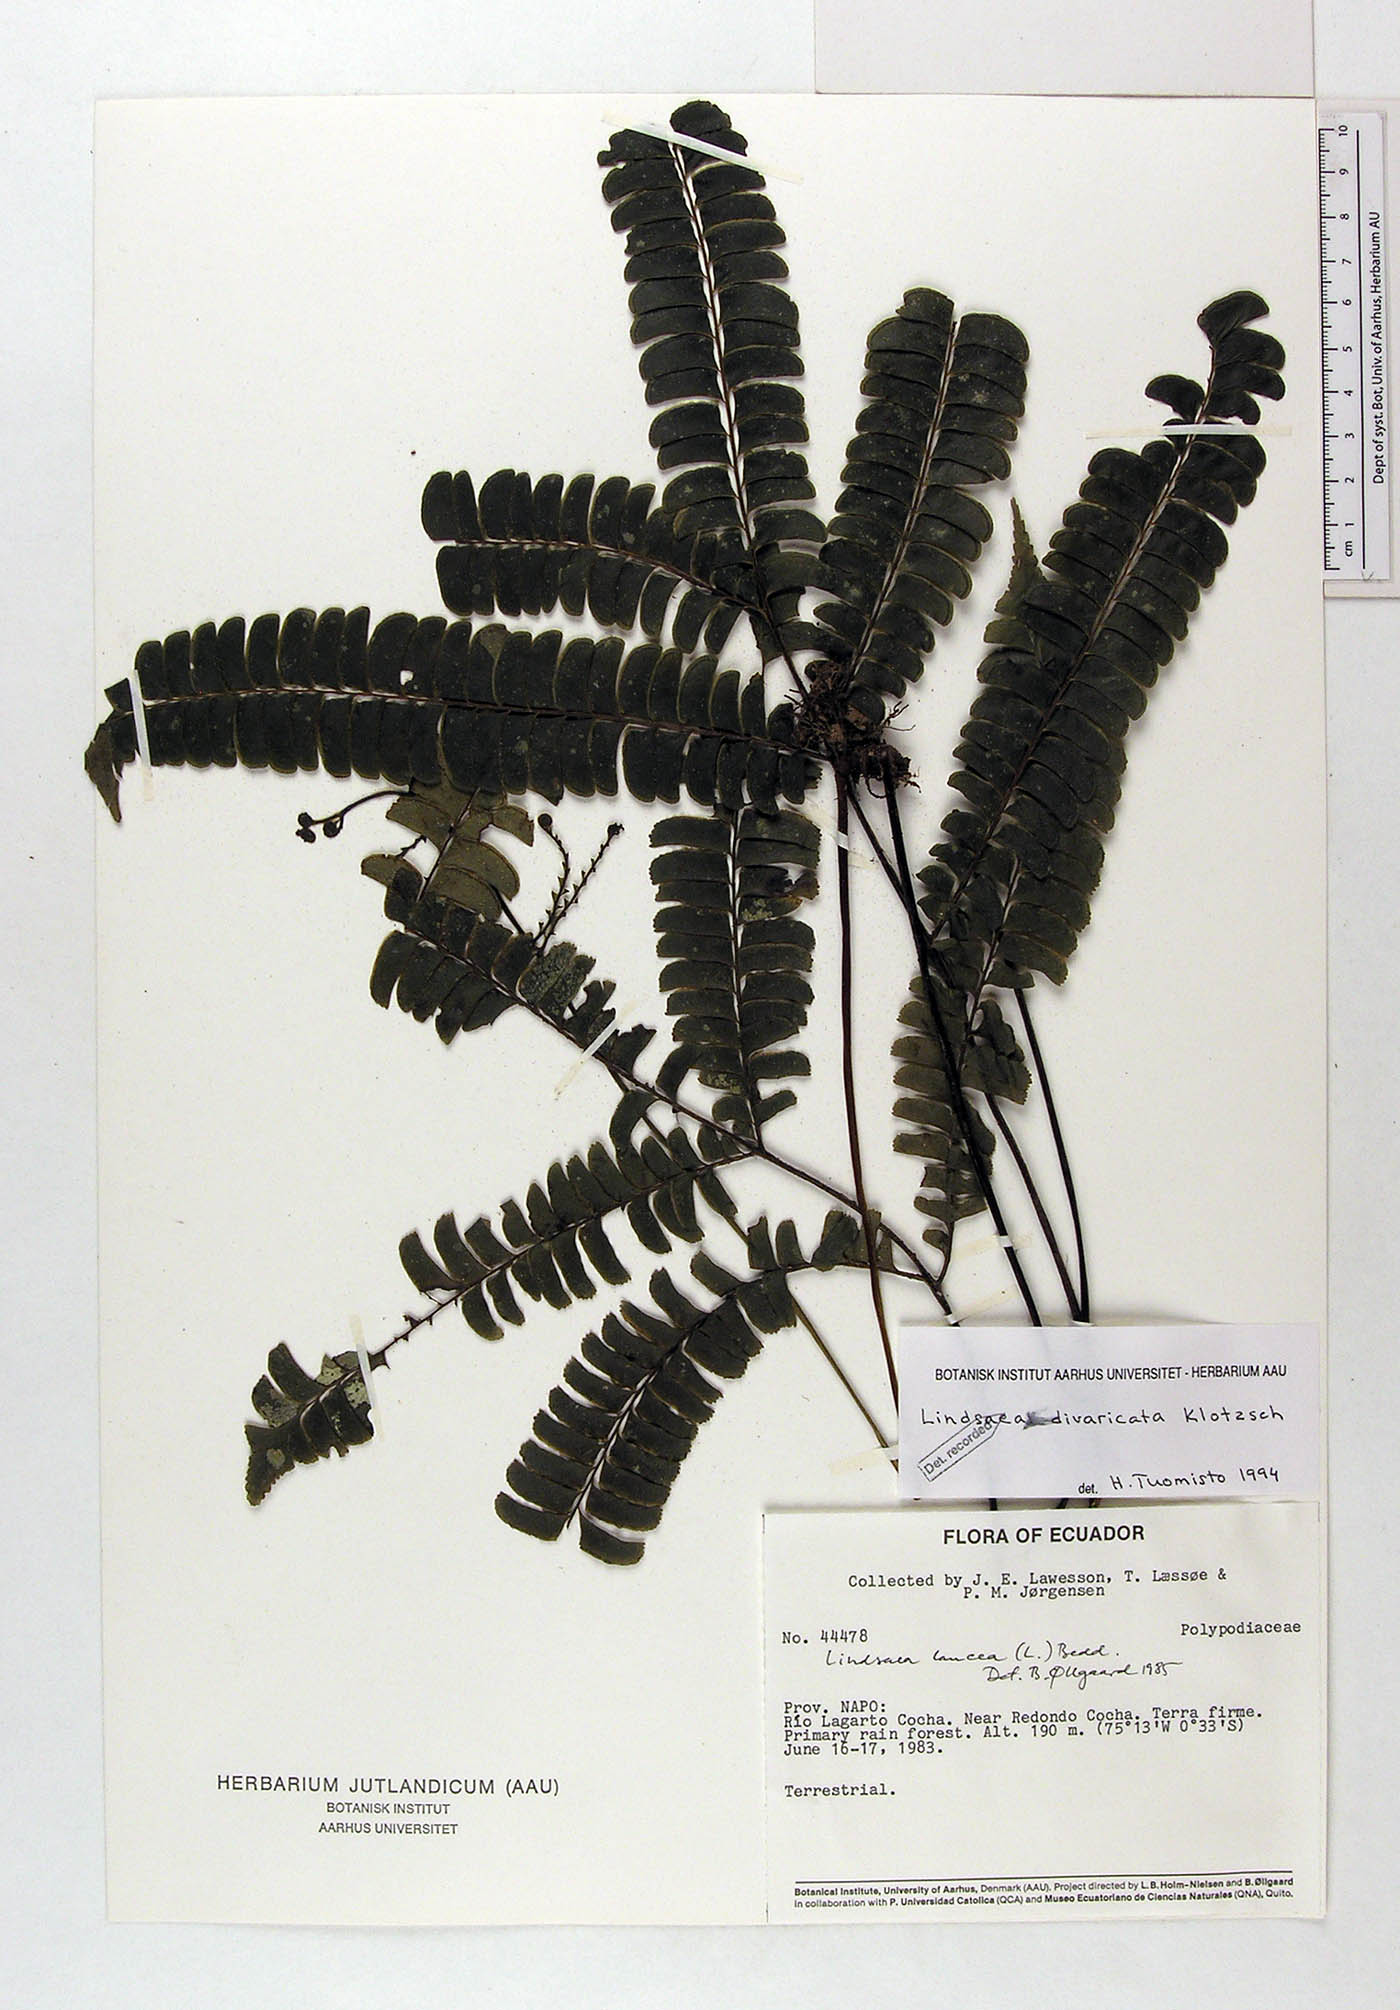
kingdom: Plantae
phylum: Tracheophyta
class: Polypodiopsida
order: Polypodiales
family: Lindsaeaceae
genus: Lindsaea
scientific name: Lindsaea divaricata
